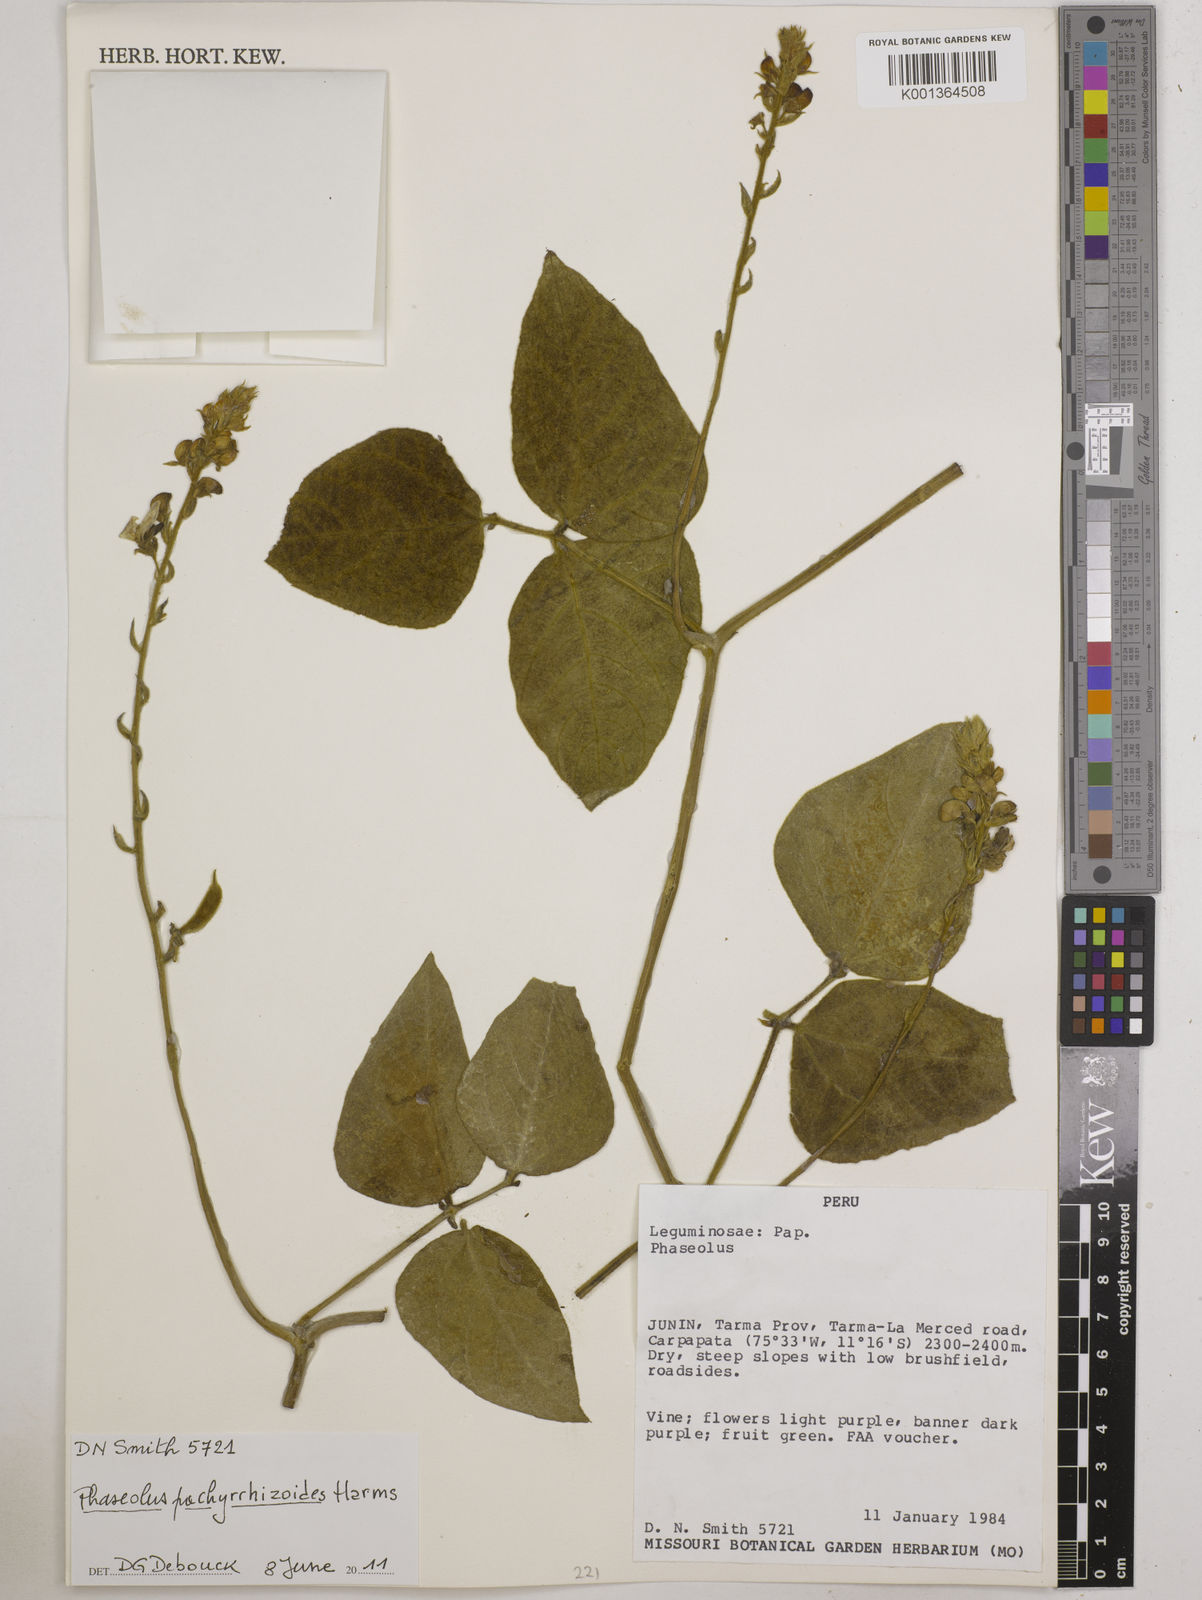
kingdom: Plantae
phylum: Tracheophyta
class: Magnoliopsida
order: Fabales
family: Fabaceae
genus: Ramirezella
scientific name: Ramirezella strobilophora
